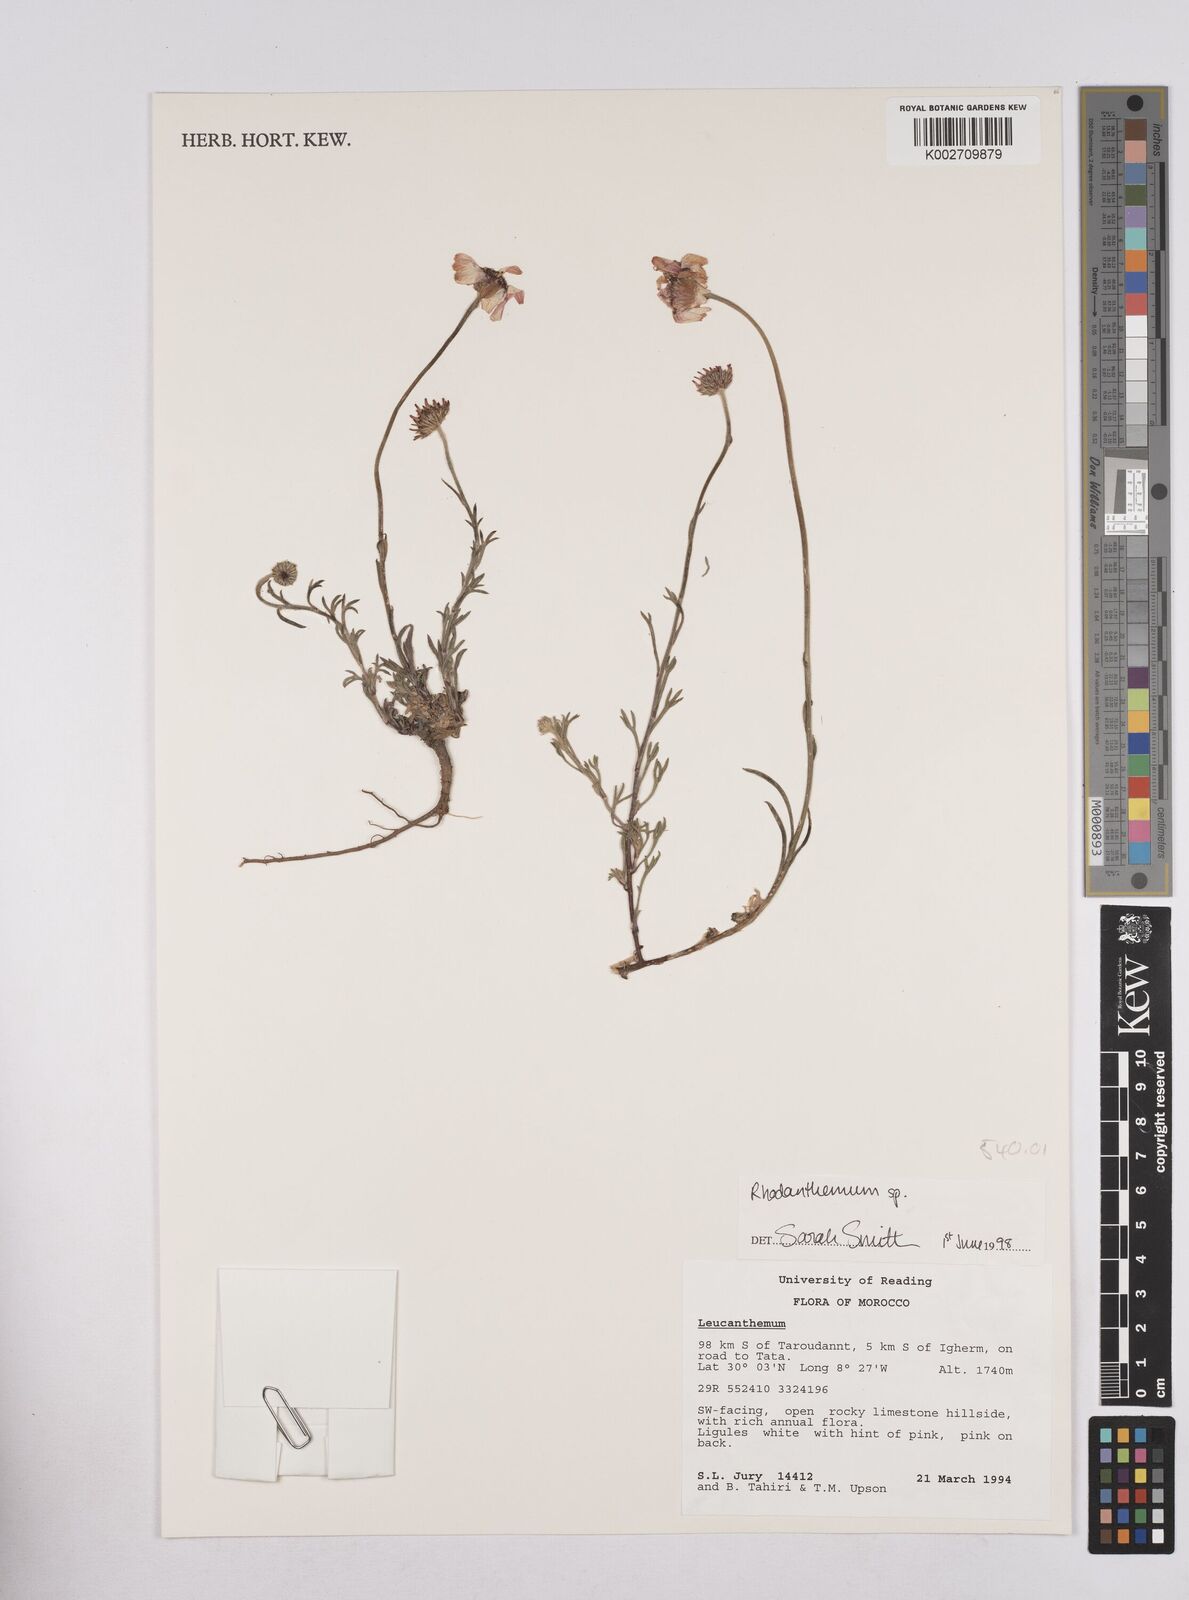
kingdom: Plantae
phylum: Tracheophyta
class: Magnoliopsida
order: Asterales
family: Asteraceae
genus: Rhodanthemum
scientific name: Rhodanthemum
